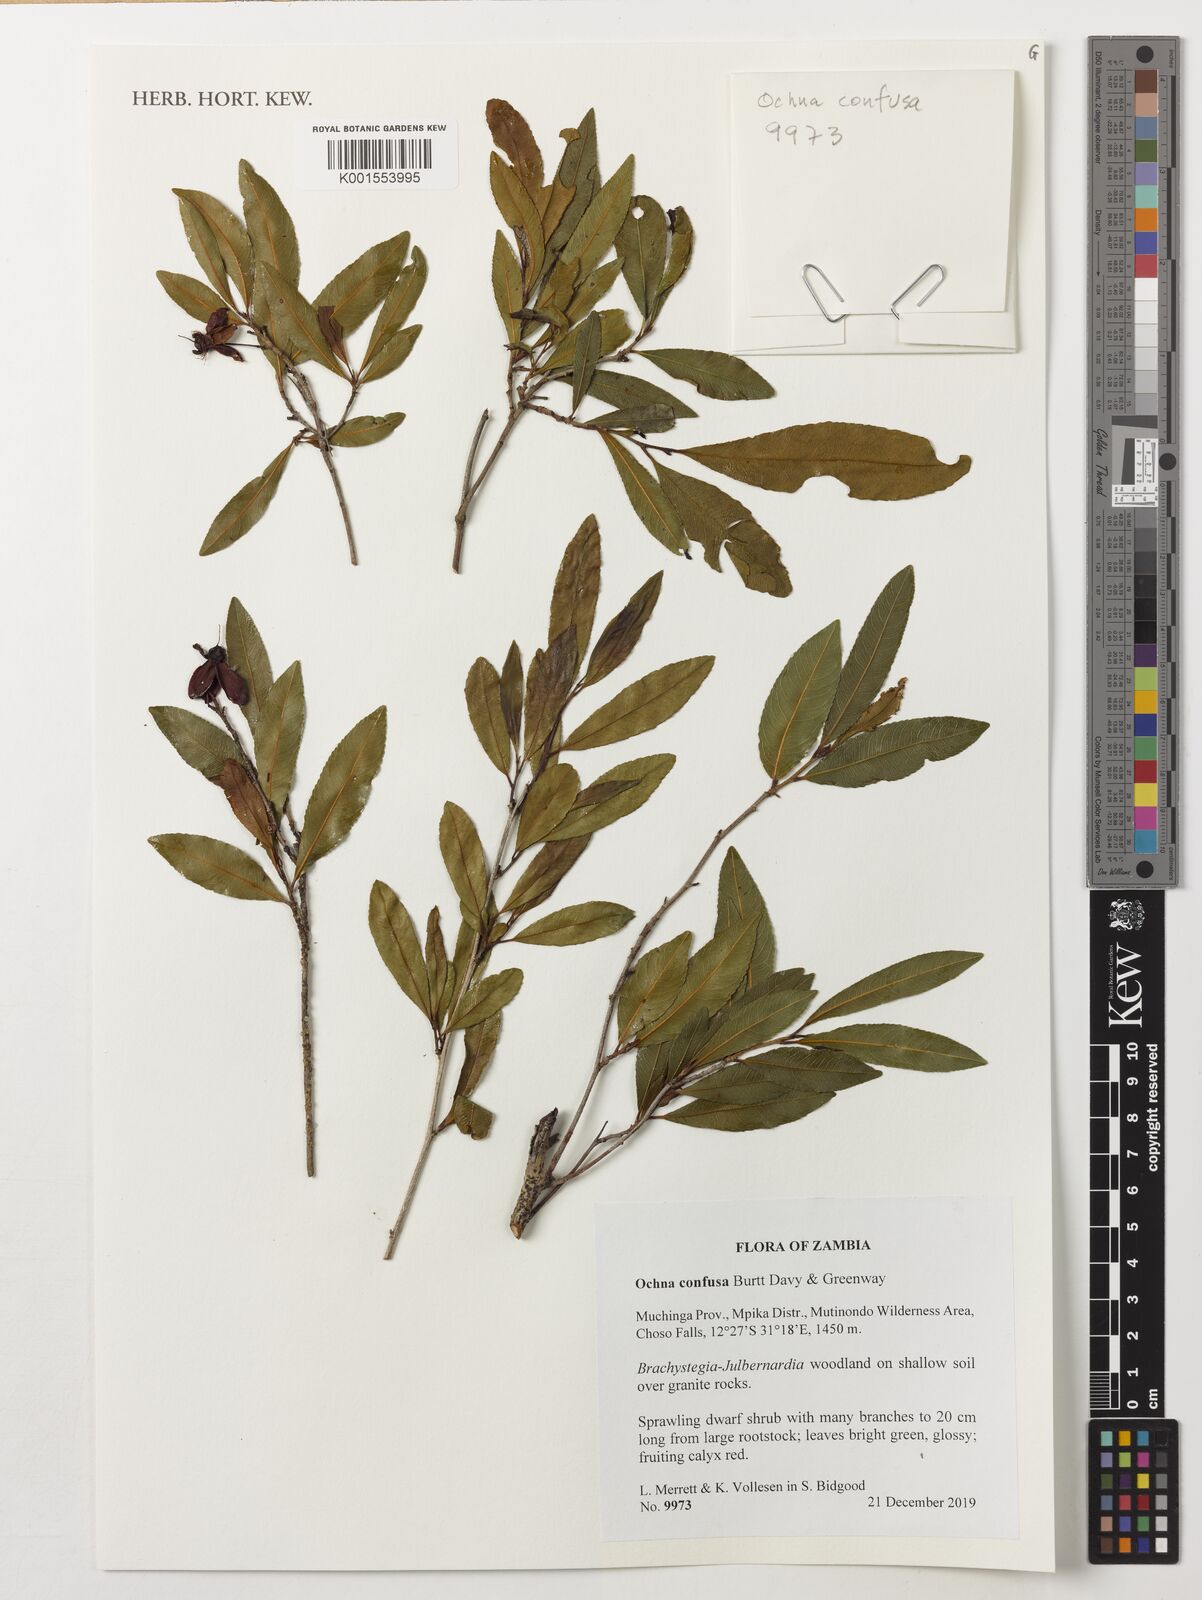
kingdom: Plantae
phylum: Tracheophyta
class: Magnoliopsida
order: Malpighiales
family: Ochnaceae
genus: Ochna
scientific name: Ochna confusa
